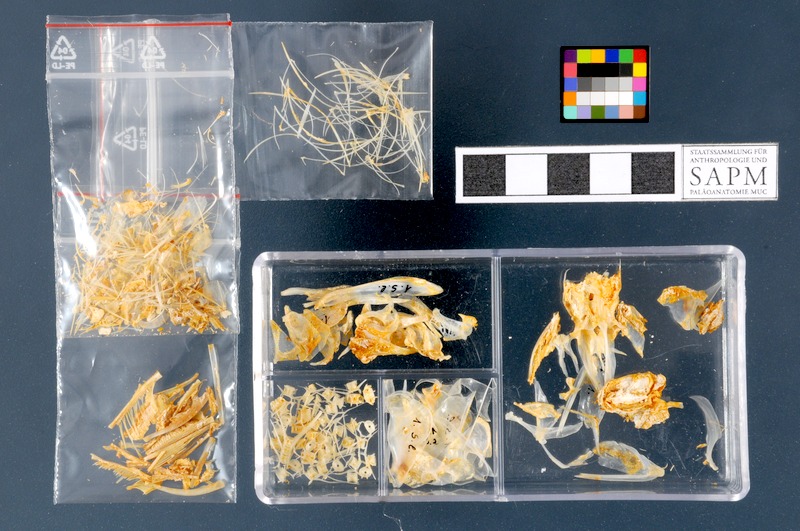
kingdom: Animalia
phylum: Chordata
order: Clupeiformes
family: Clupeidae
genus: Sardinella
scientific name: Sardinella longiceps
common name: Indian oil sardine
